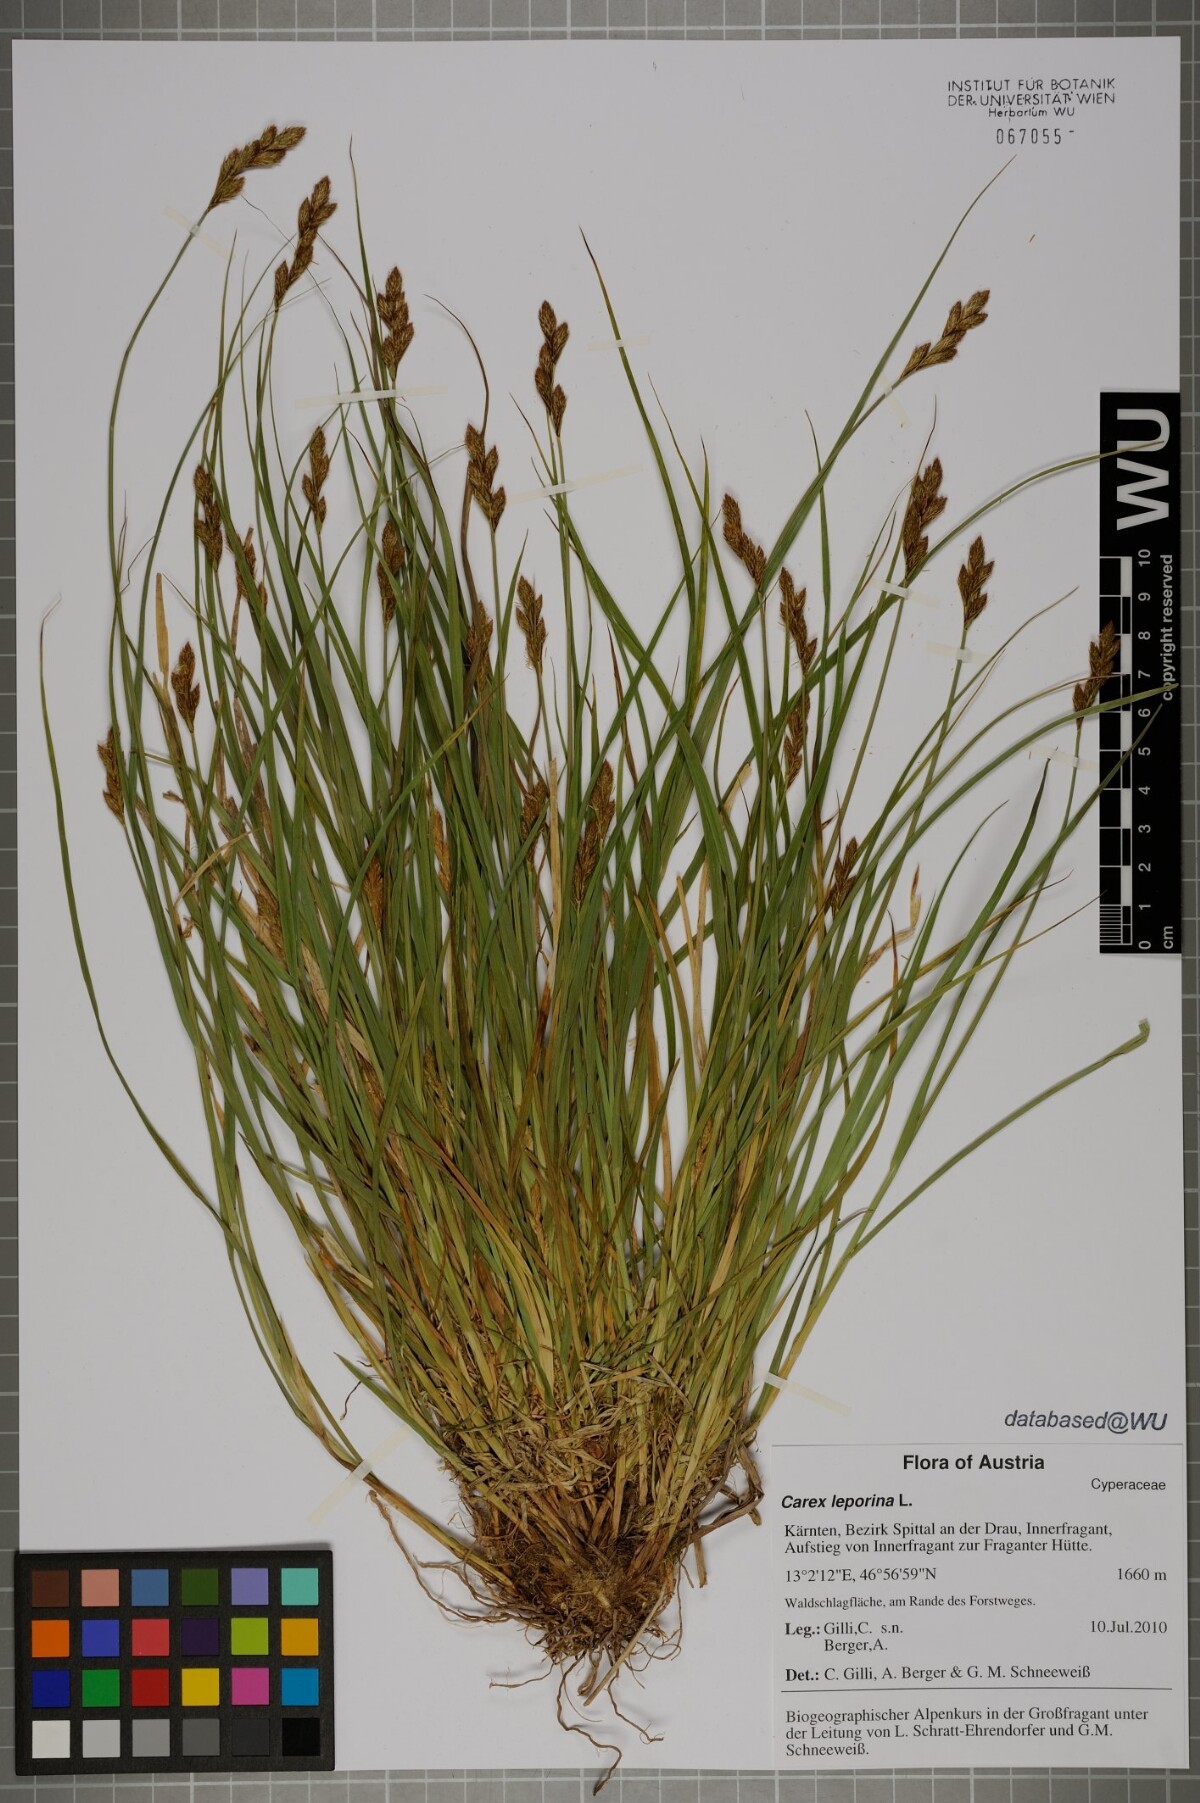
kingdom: Plantae
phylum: Tracheophyta
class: Liliopsida
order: Poales
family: Cyperaceae
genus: Carex
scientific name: Carex leporina
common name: Oval sedge
